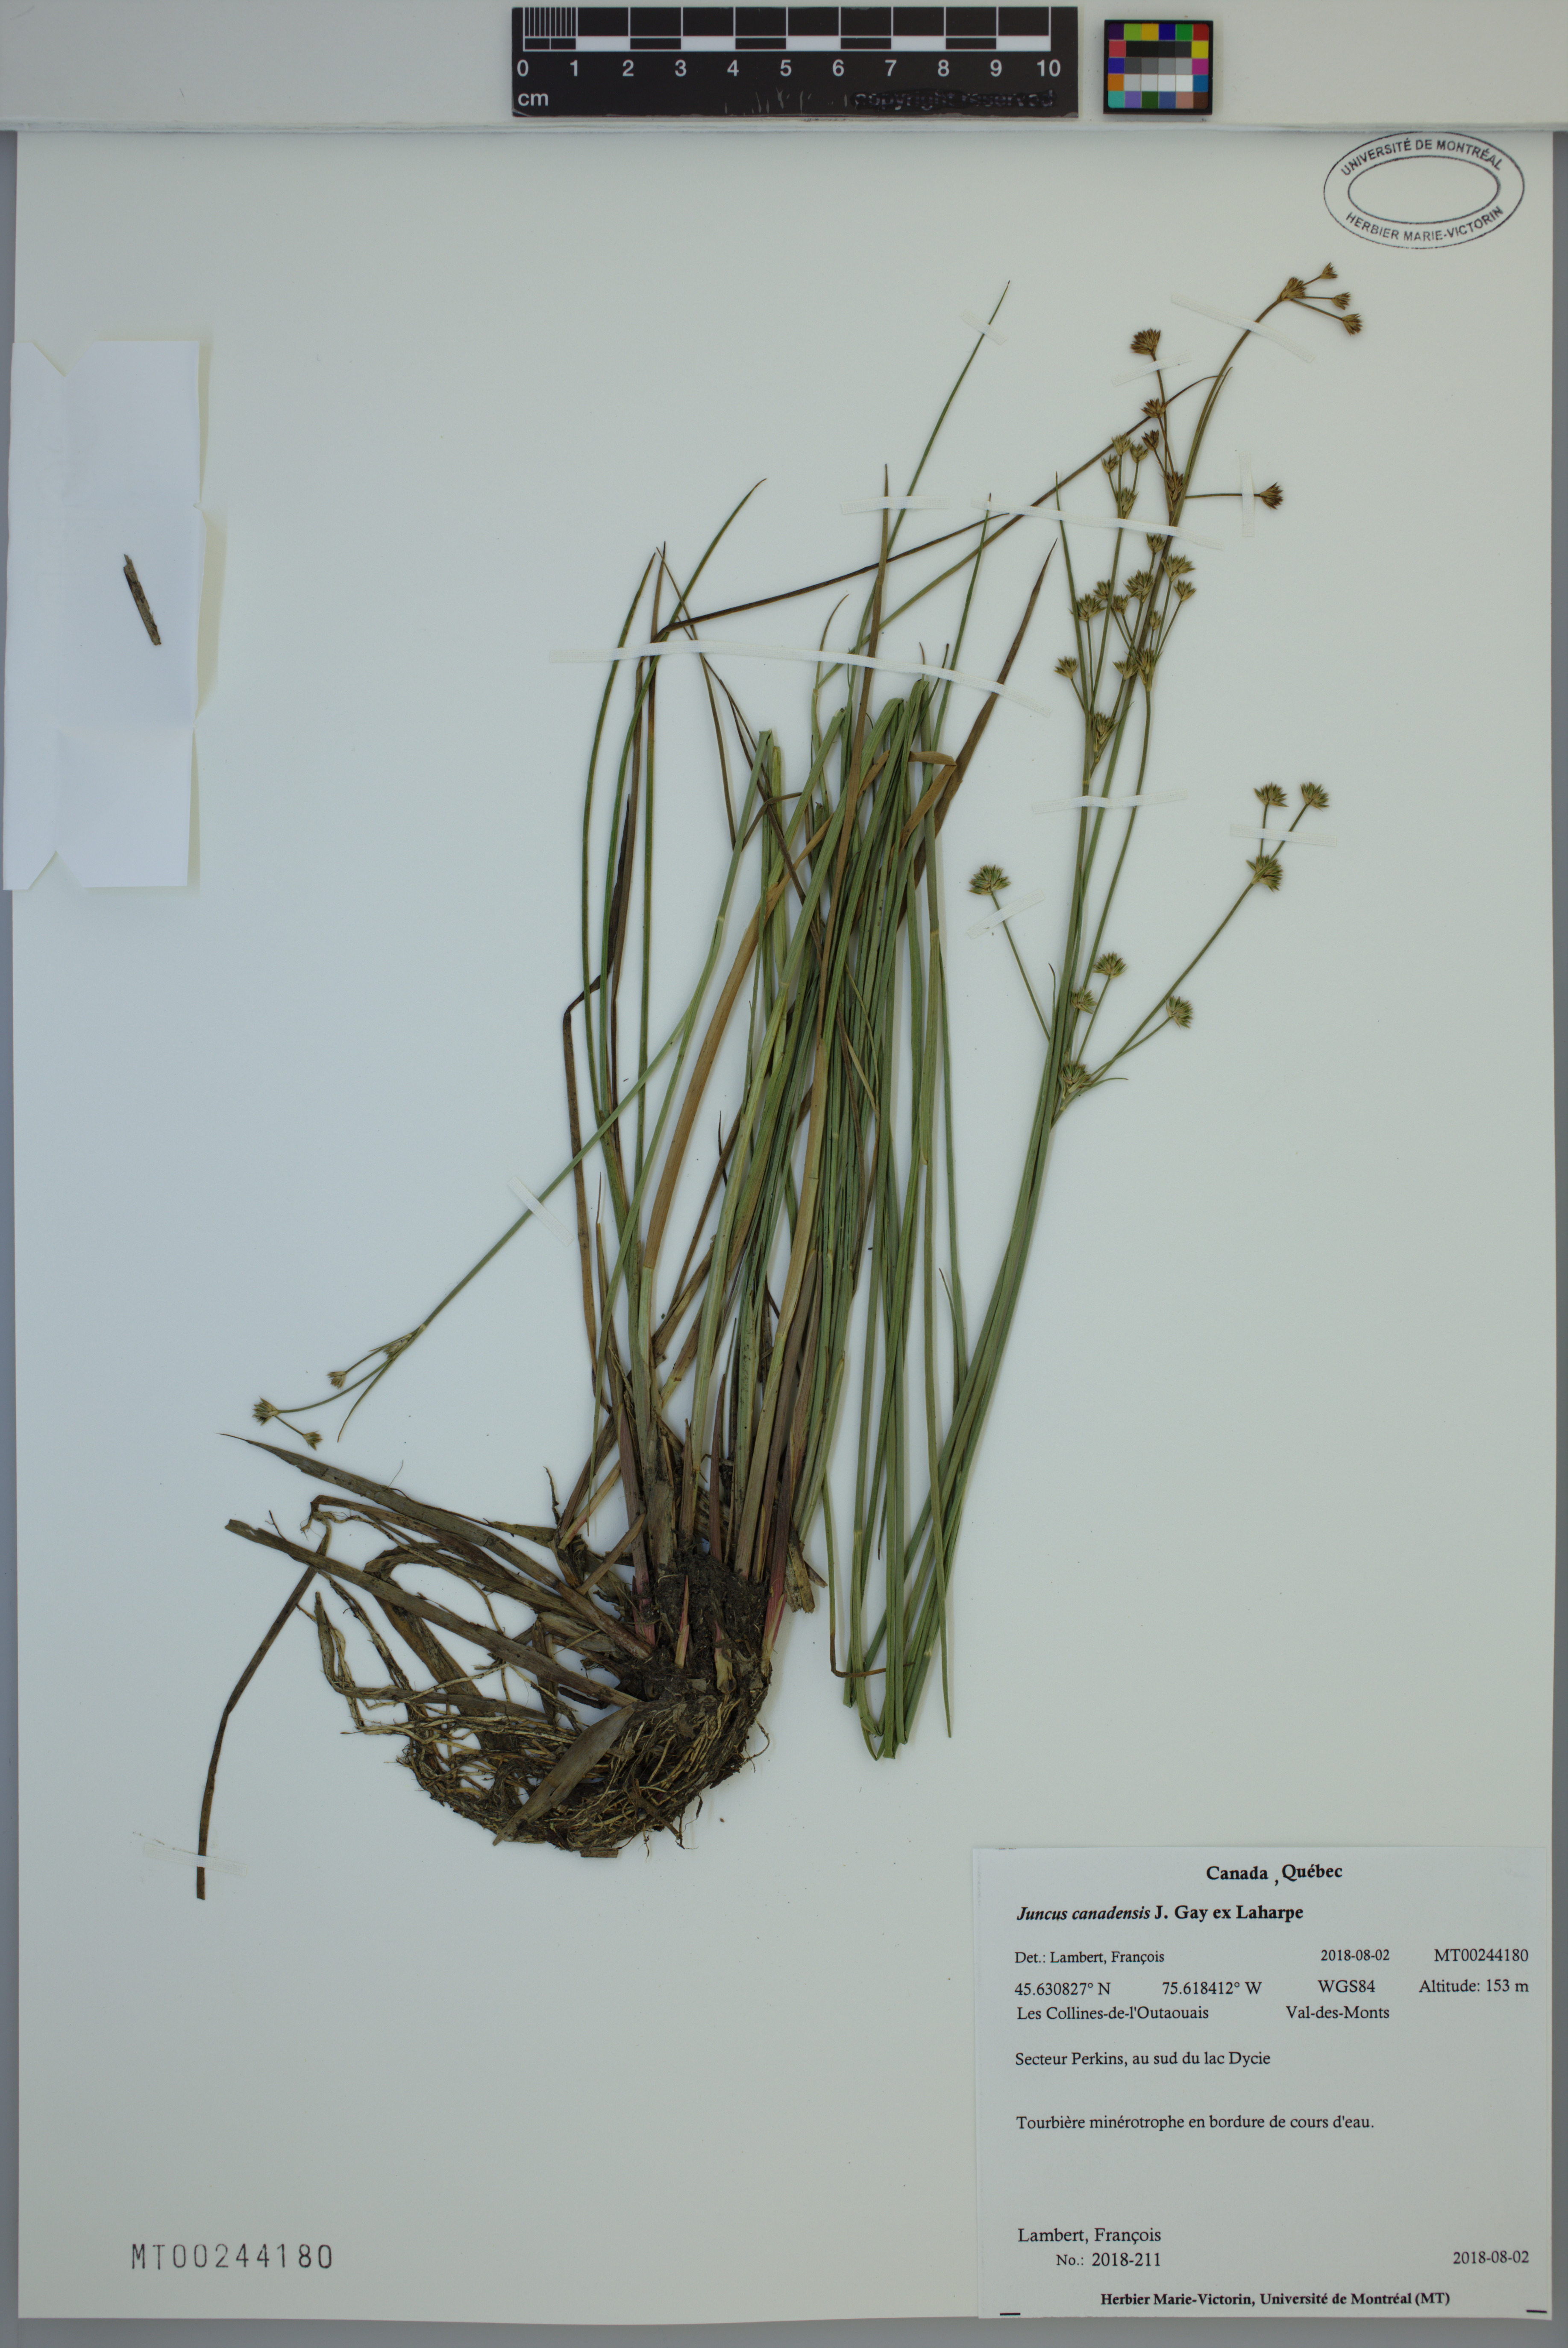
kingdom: Plantae
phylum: Tracheophyta
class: Liliopsida
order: Poales
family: Juncaceae
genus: Juncus
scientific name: Juncus canadensis
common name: Canada rush
